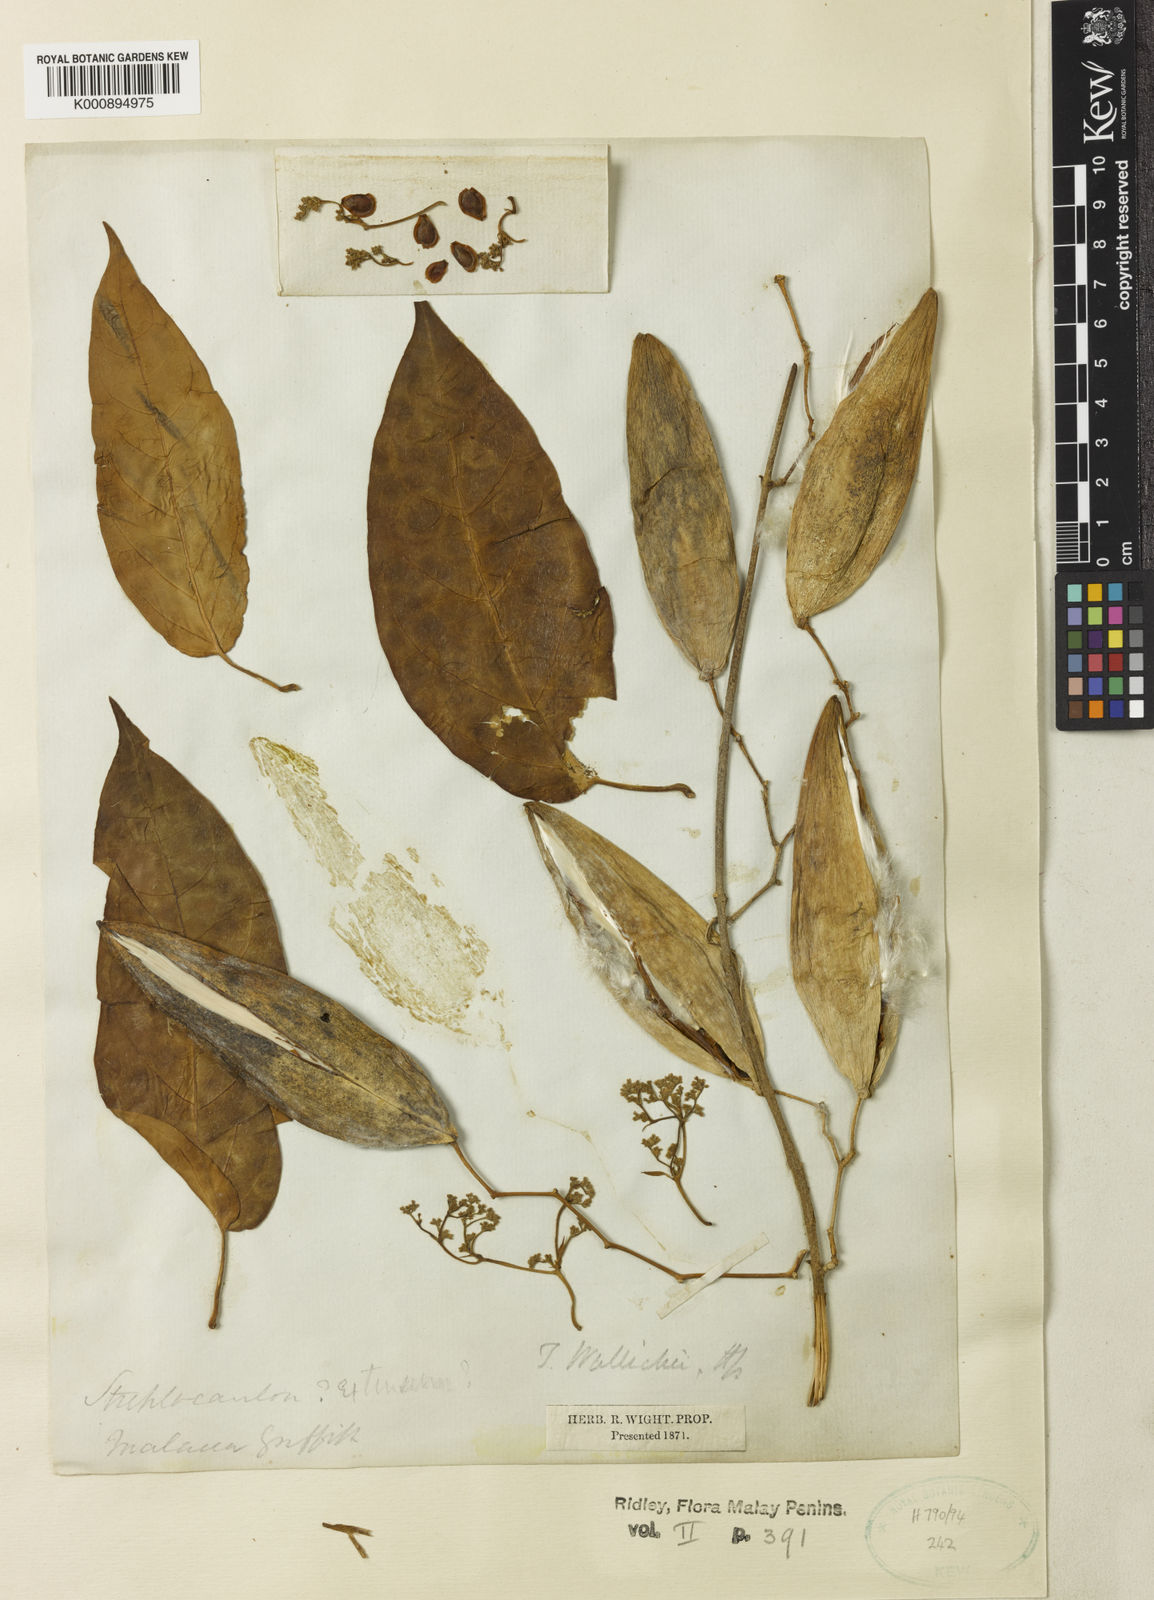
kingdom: Plantae
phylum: Tracheophyta
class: Magnoliopsida
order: Gentianales
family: Apocynaceae
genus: Vincetoxicum
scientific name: Vincetoxicum ventricosum
